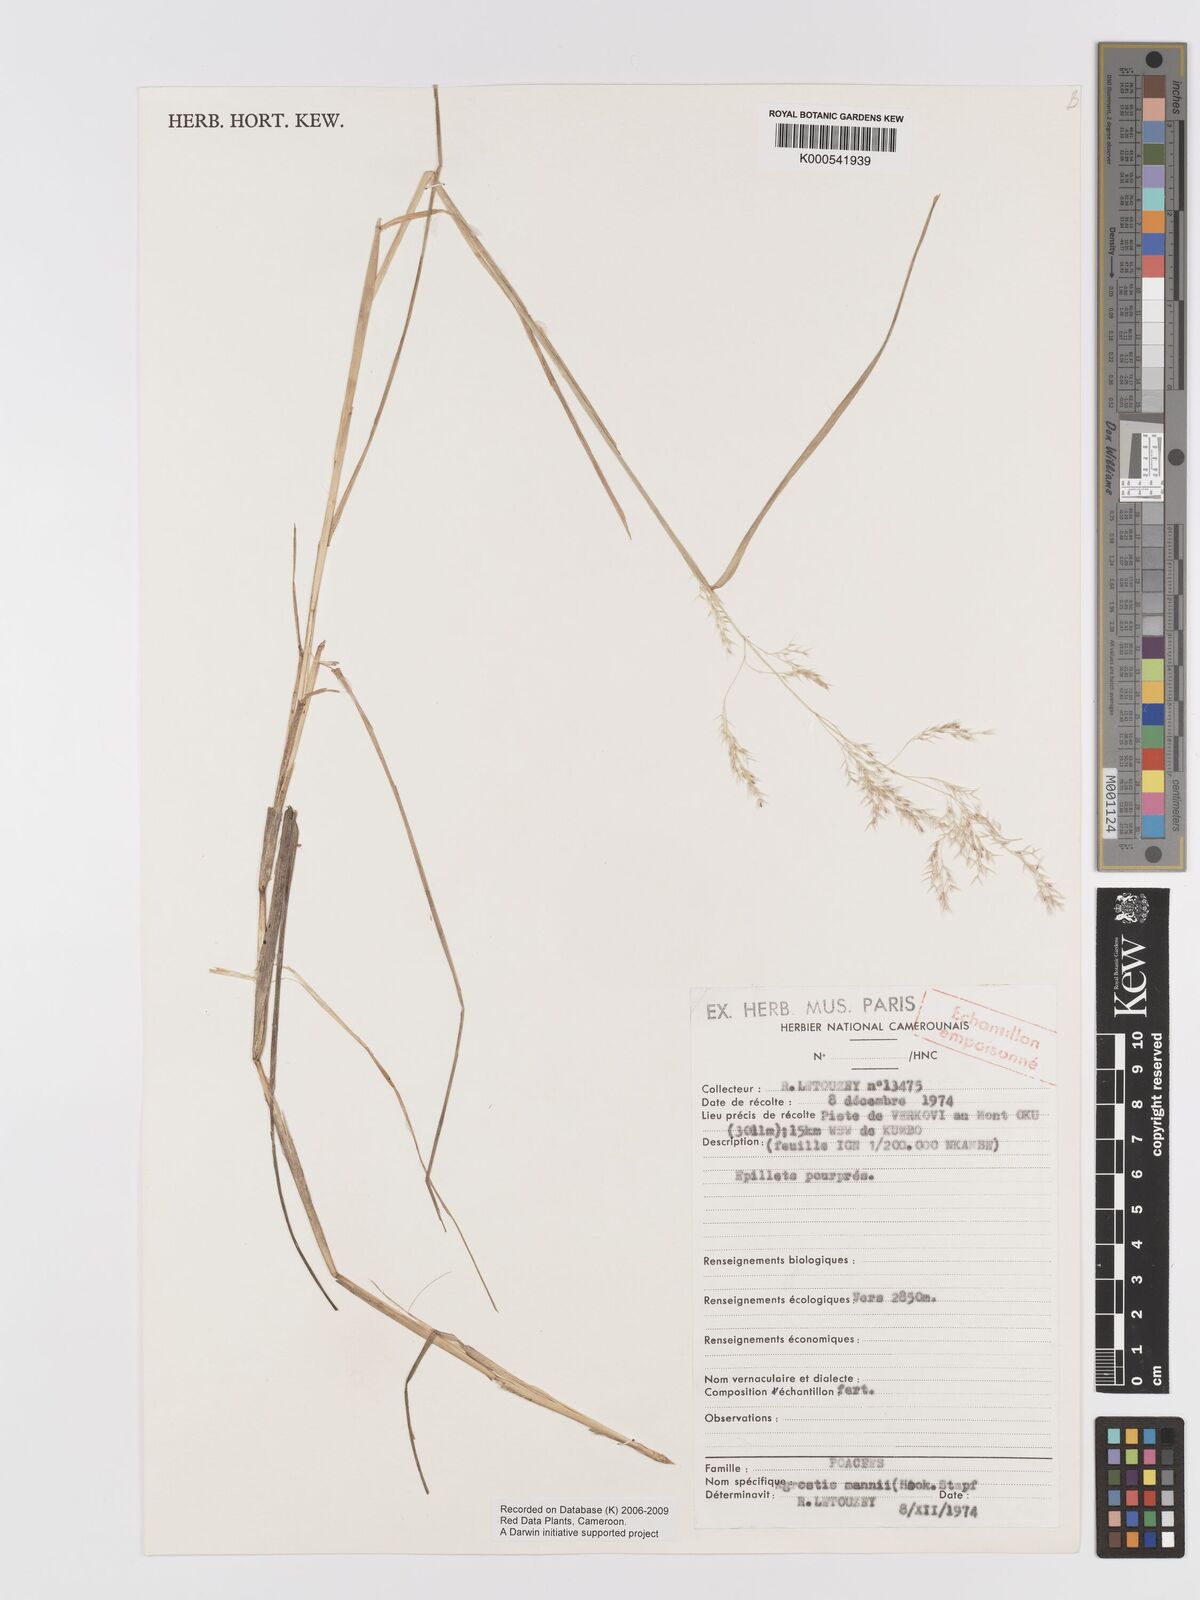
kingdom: Plantae
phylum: Tracheophyta
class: Liliopsida
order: Poales
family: Poaceae
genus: Agrostis
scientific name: Agrostis mannii
